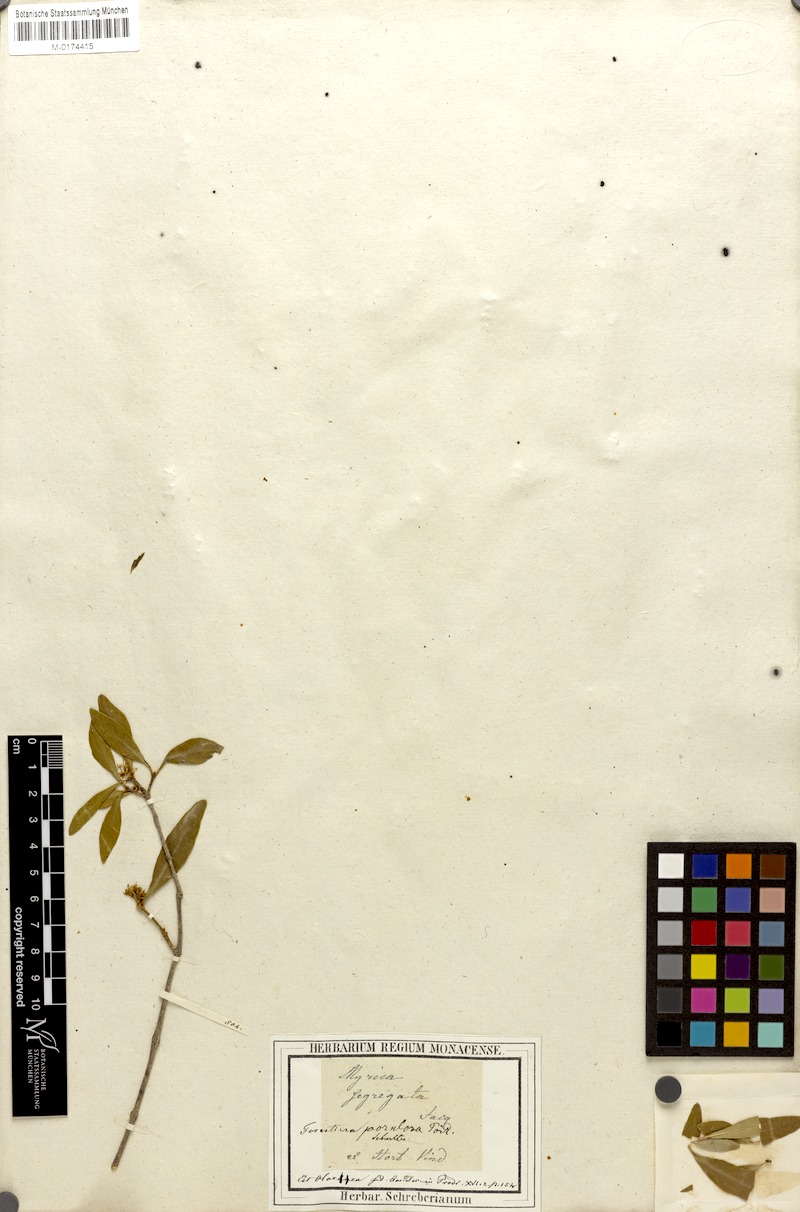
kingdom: Plantae
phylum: Tracheophyta
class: Magnoliopsida
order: Lamiales
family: Oleaceae
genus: Forestiera
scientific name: Forestiera segregata
